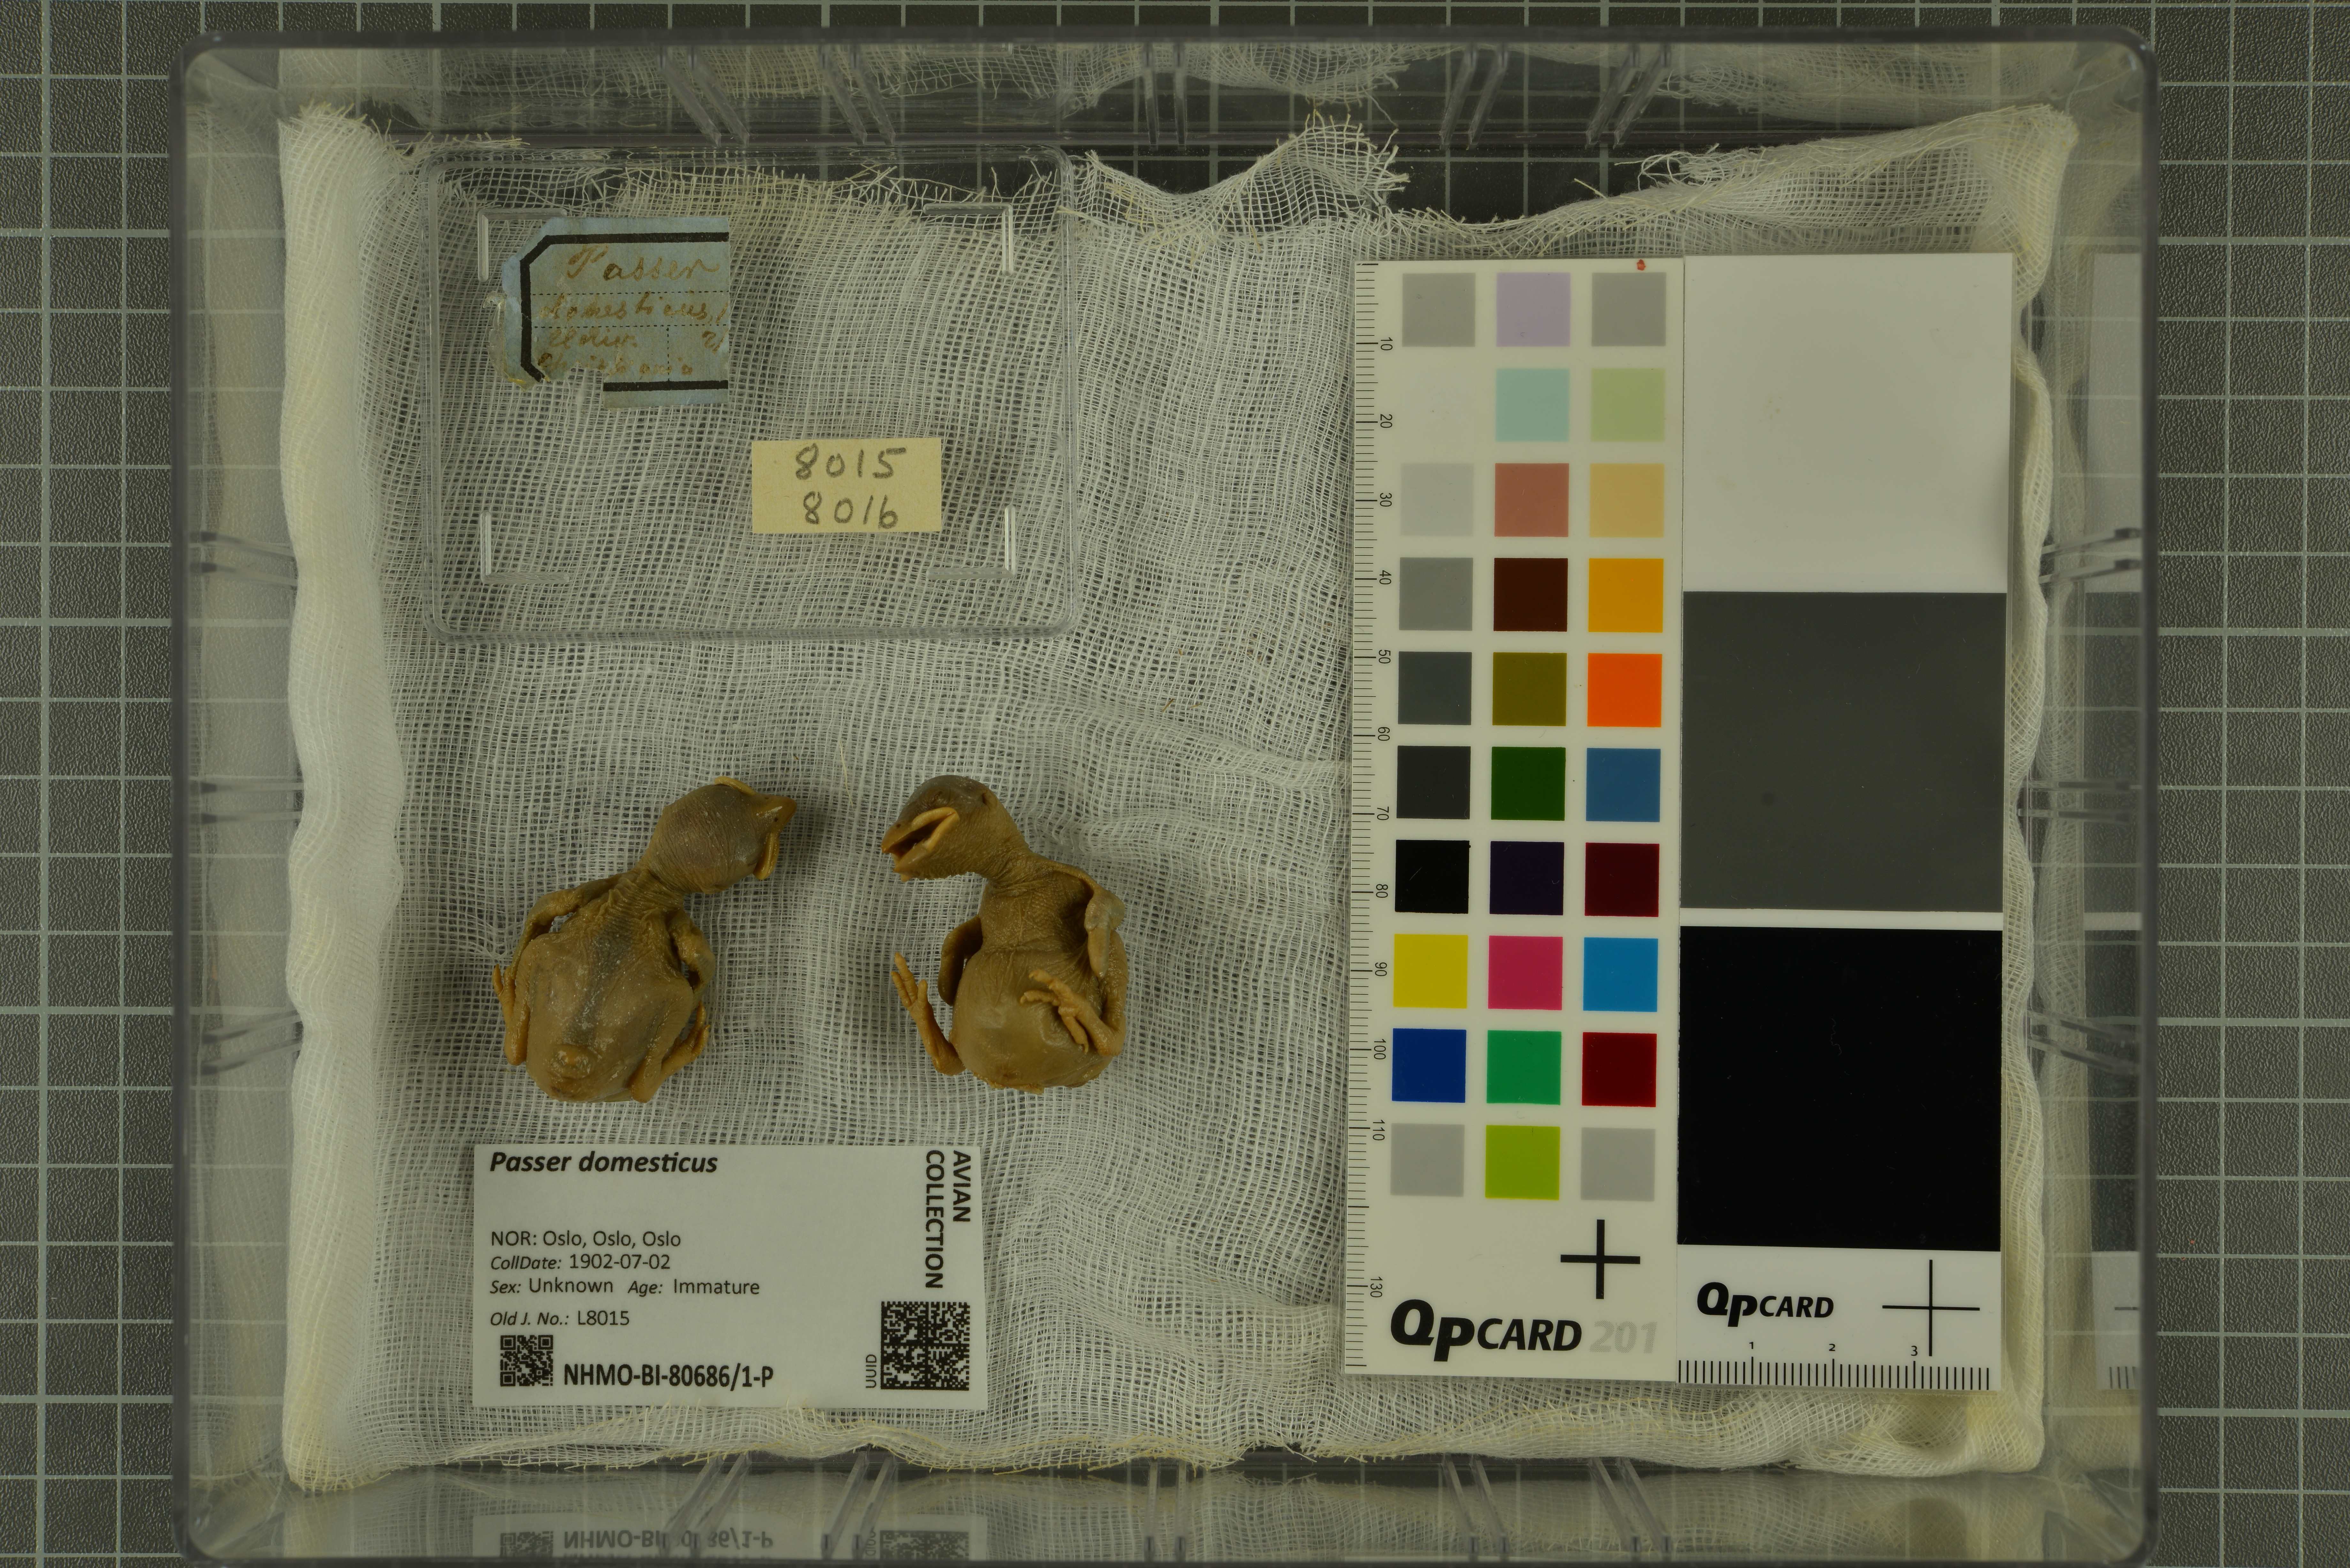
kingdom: Animalia
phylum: Chordata
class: Aves
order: Passeriformes
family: Passeridae
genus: Passer
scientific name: Passer domesticus
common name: House sparrow
